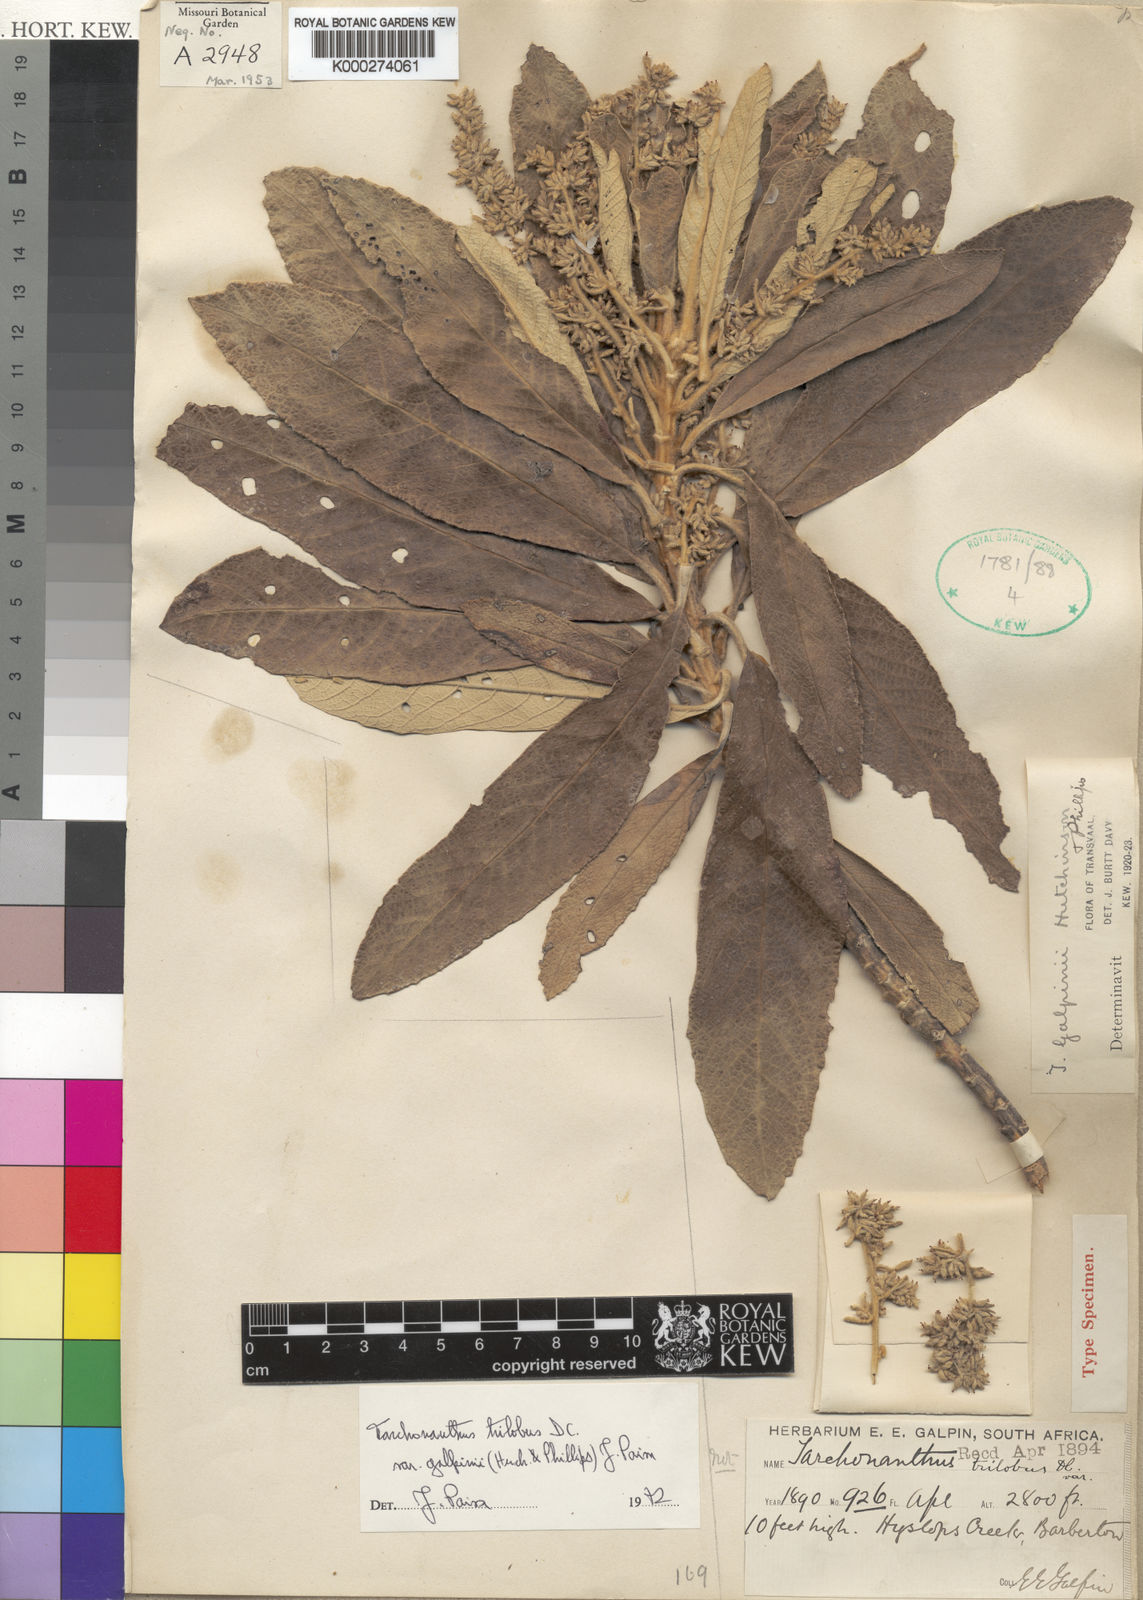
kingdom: Plantae
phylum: Tracheophyta
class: Magnoliopsida
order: Asterales
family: Asteraceae
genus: Tarchonanthus
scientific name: Tarchonanthus trilobus
